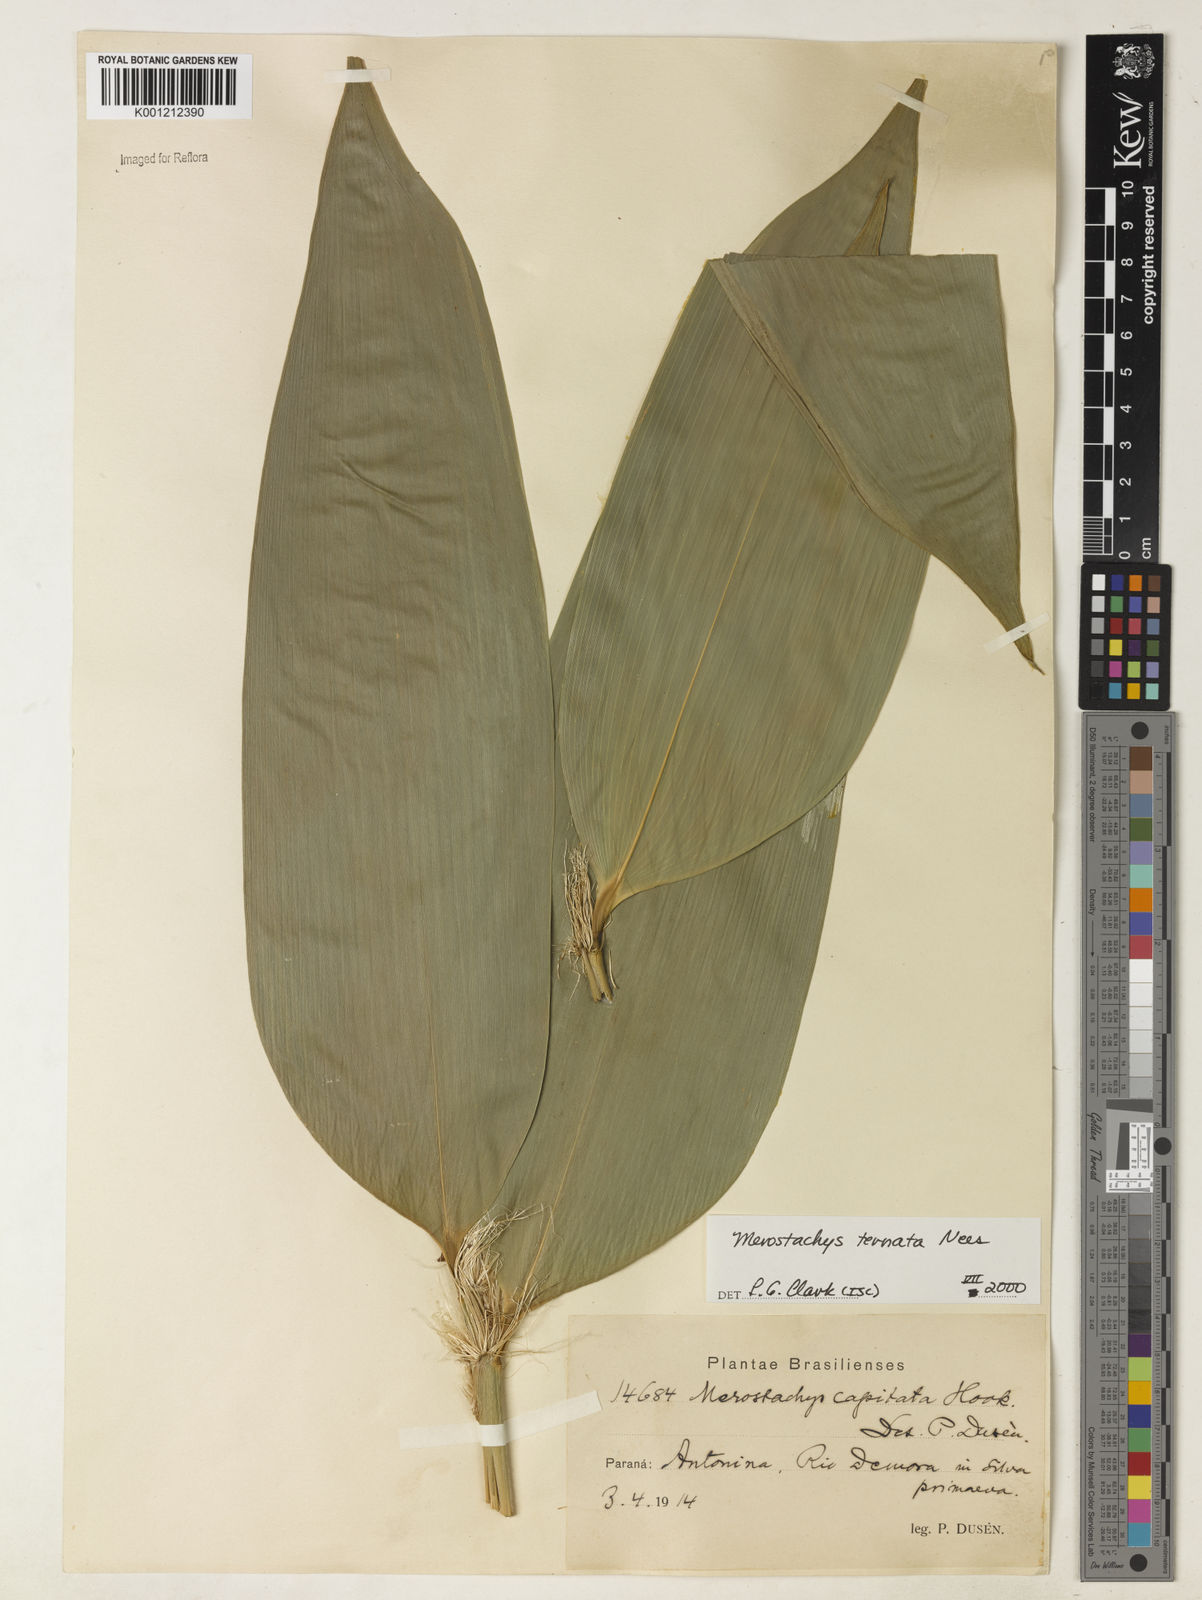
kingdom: Plantae
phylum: Tracheophyta
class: Liliopsida
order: Poales
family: Poaceae
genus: Merostachys
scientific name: Merostachys ternata
